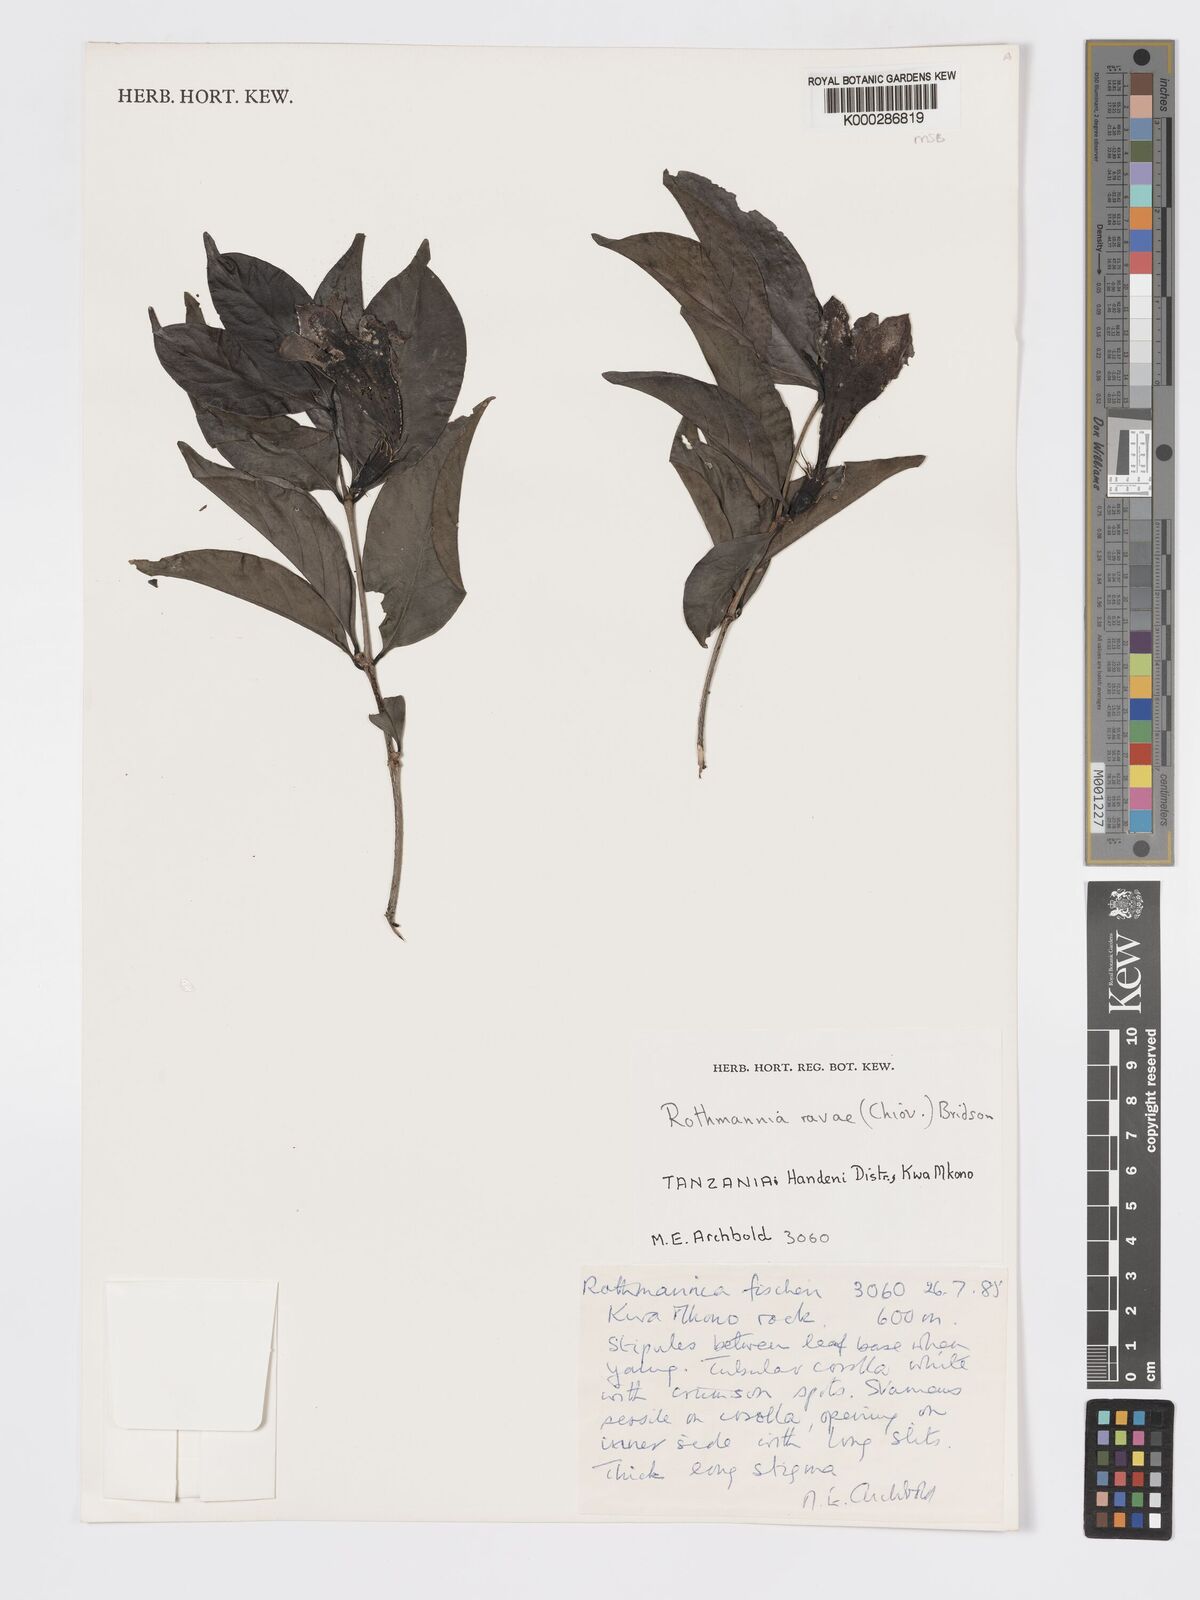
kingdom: Plantae
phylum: Tracheophyta
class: Magnoliopsida
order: Gentianales
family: Rubiaceae
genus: Rothmannia
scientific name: Rothmannia ravae
